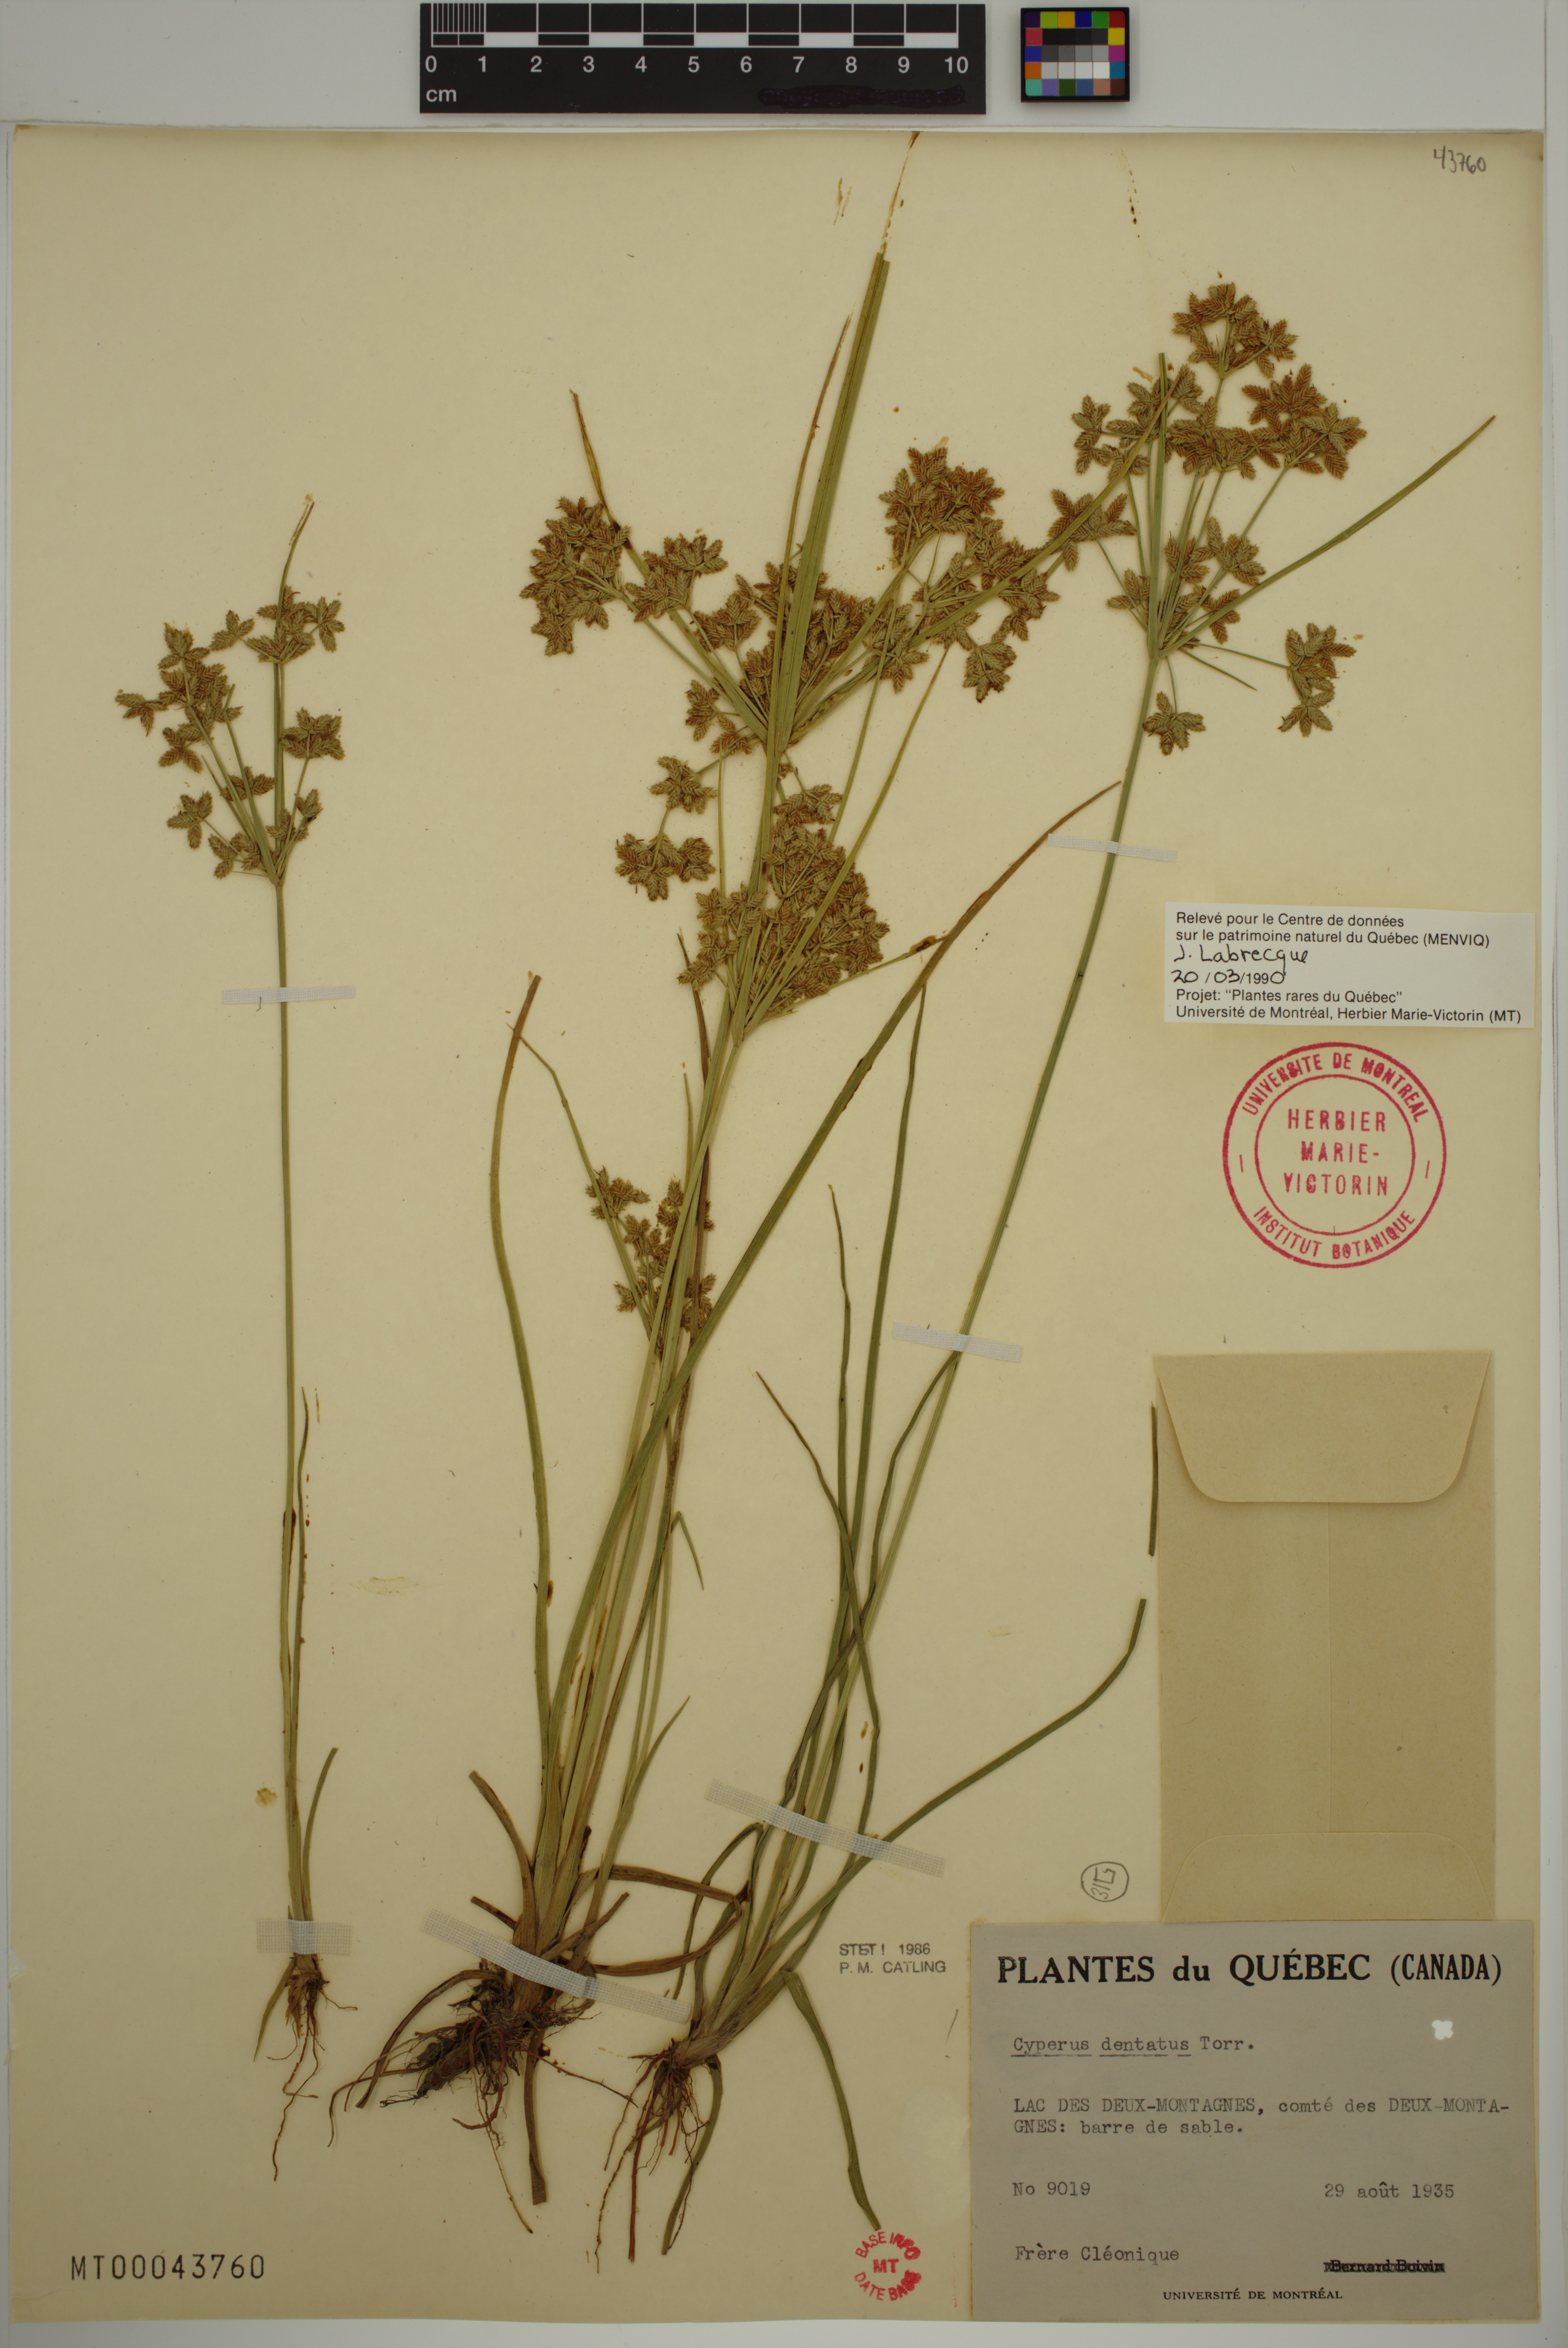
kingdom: Plantae
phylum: Tracheophyta
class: Liliopsida
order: Poales
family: Cyperaceae
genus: Cyperus
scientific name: Cyperus dentatus
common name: Dentate umbrella sedge
